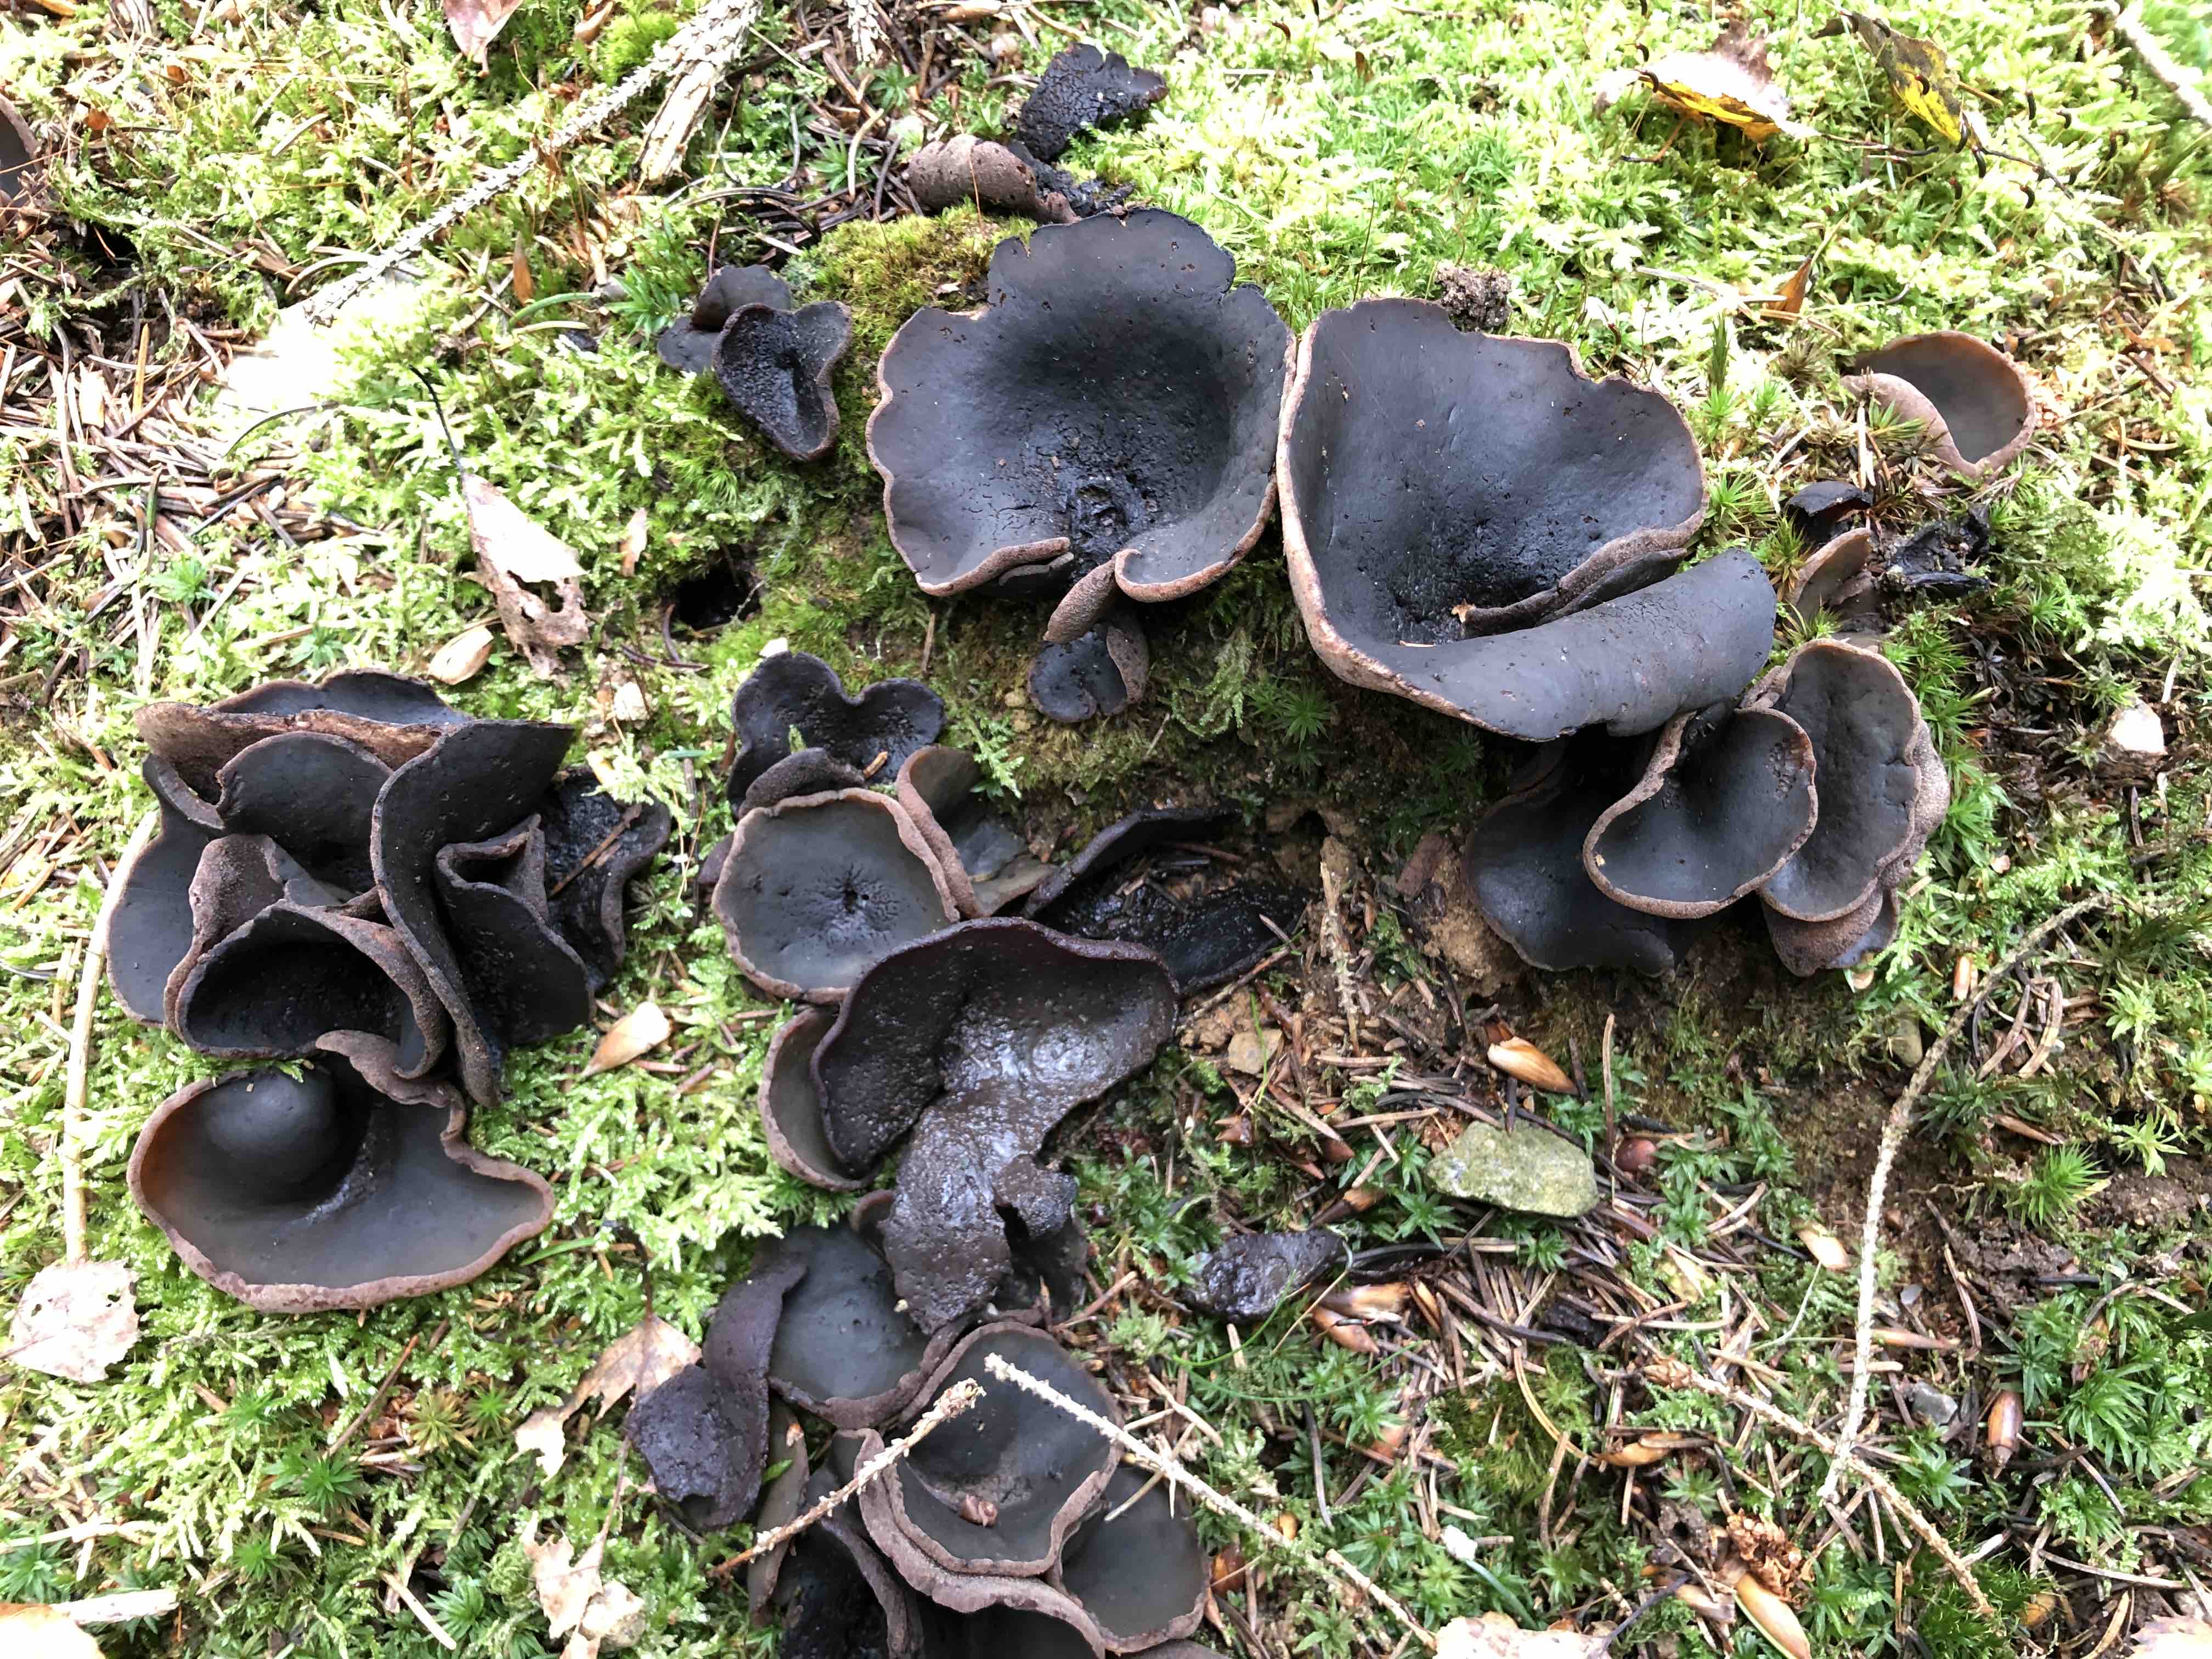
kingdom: Fungi
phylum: Ascomycota
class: Pezizomycetes
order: Pezizales
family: Pezizaceae
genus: Peziza
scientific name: Peziza
